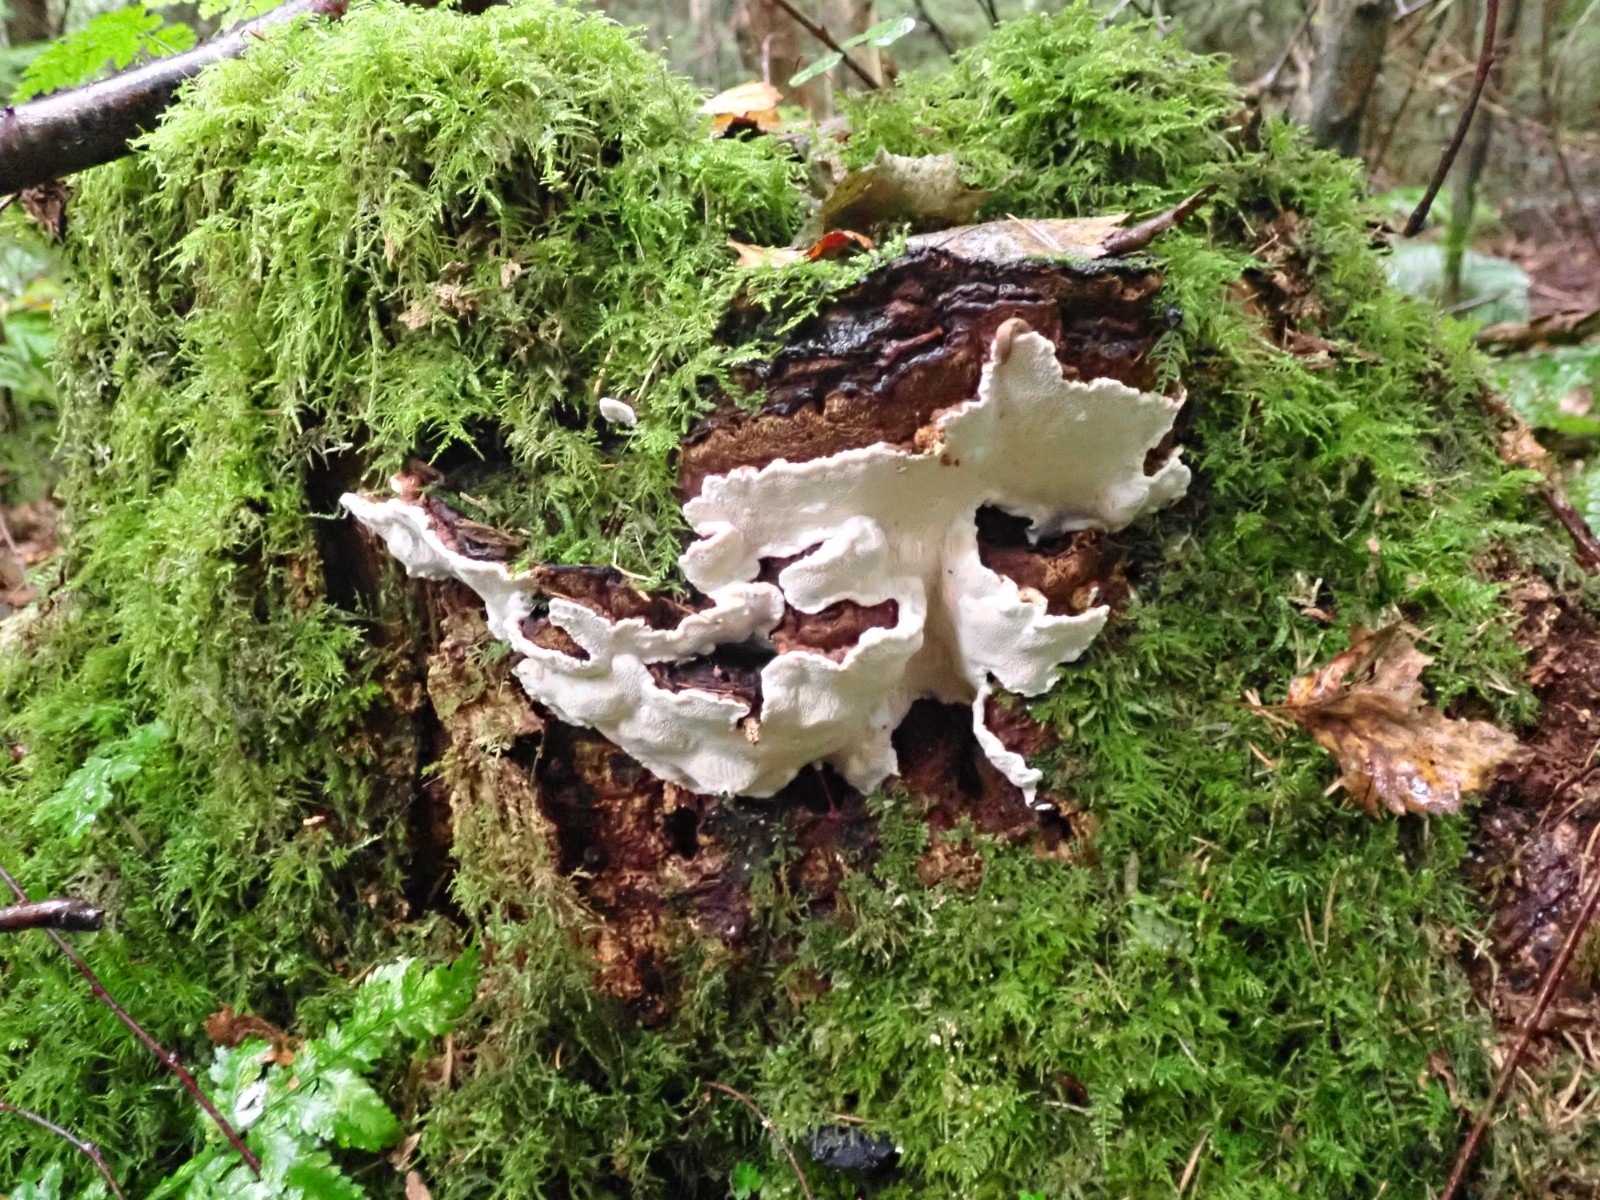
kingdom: Fungi
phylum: Basidiomycota
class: Agaricomycetes
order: Russulales
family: Bondarzewiaceae
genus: Heterobasidion
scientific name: Heterobasidion annosum
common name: almindelig rodfordærver
